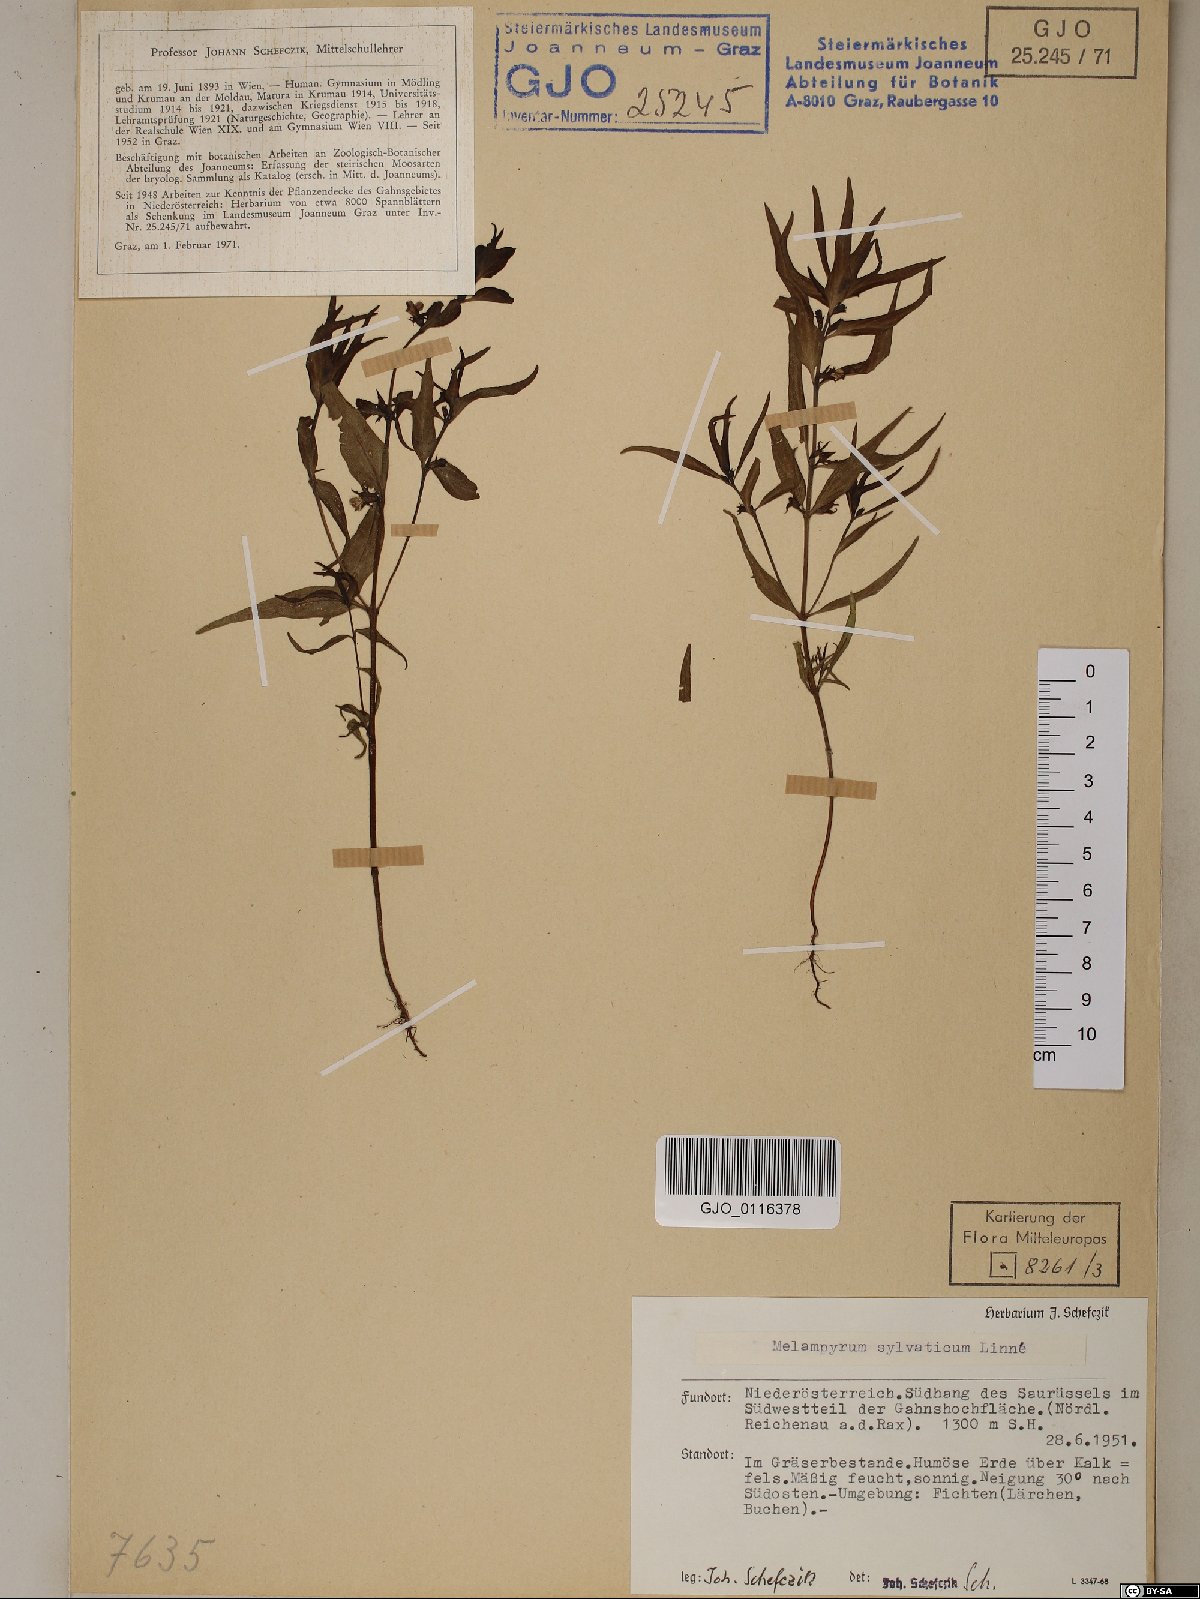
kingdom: Plantae
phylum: Tracheophyta
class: Magnoliopsida
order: Lamiales
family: Orobanchaceae
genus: Melampyrum
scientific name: Melampyrum sylvaticum
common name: Small cow-wheat
